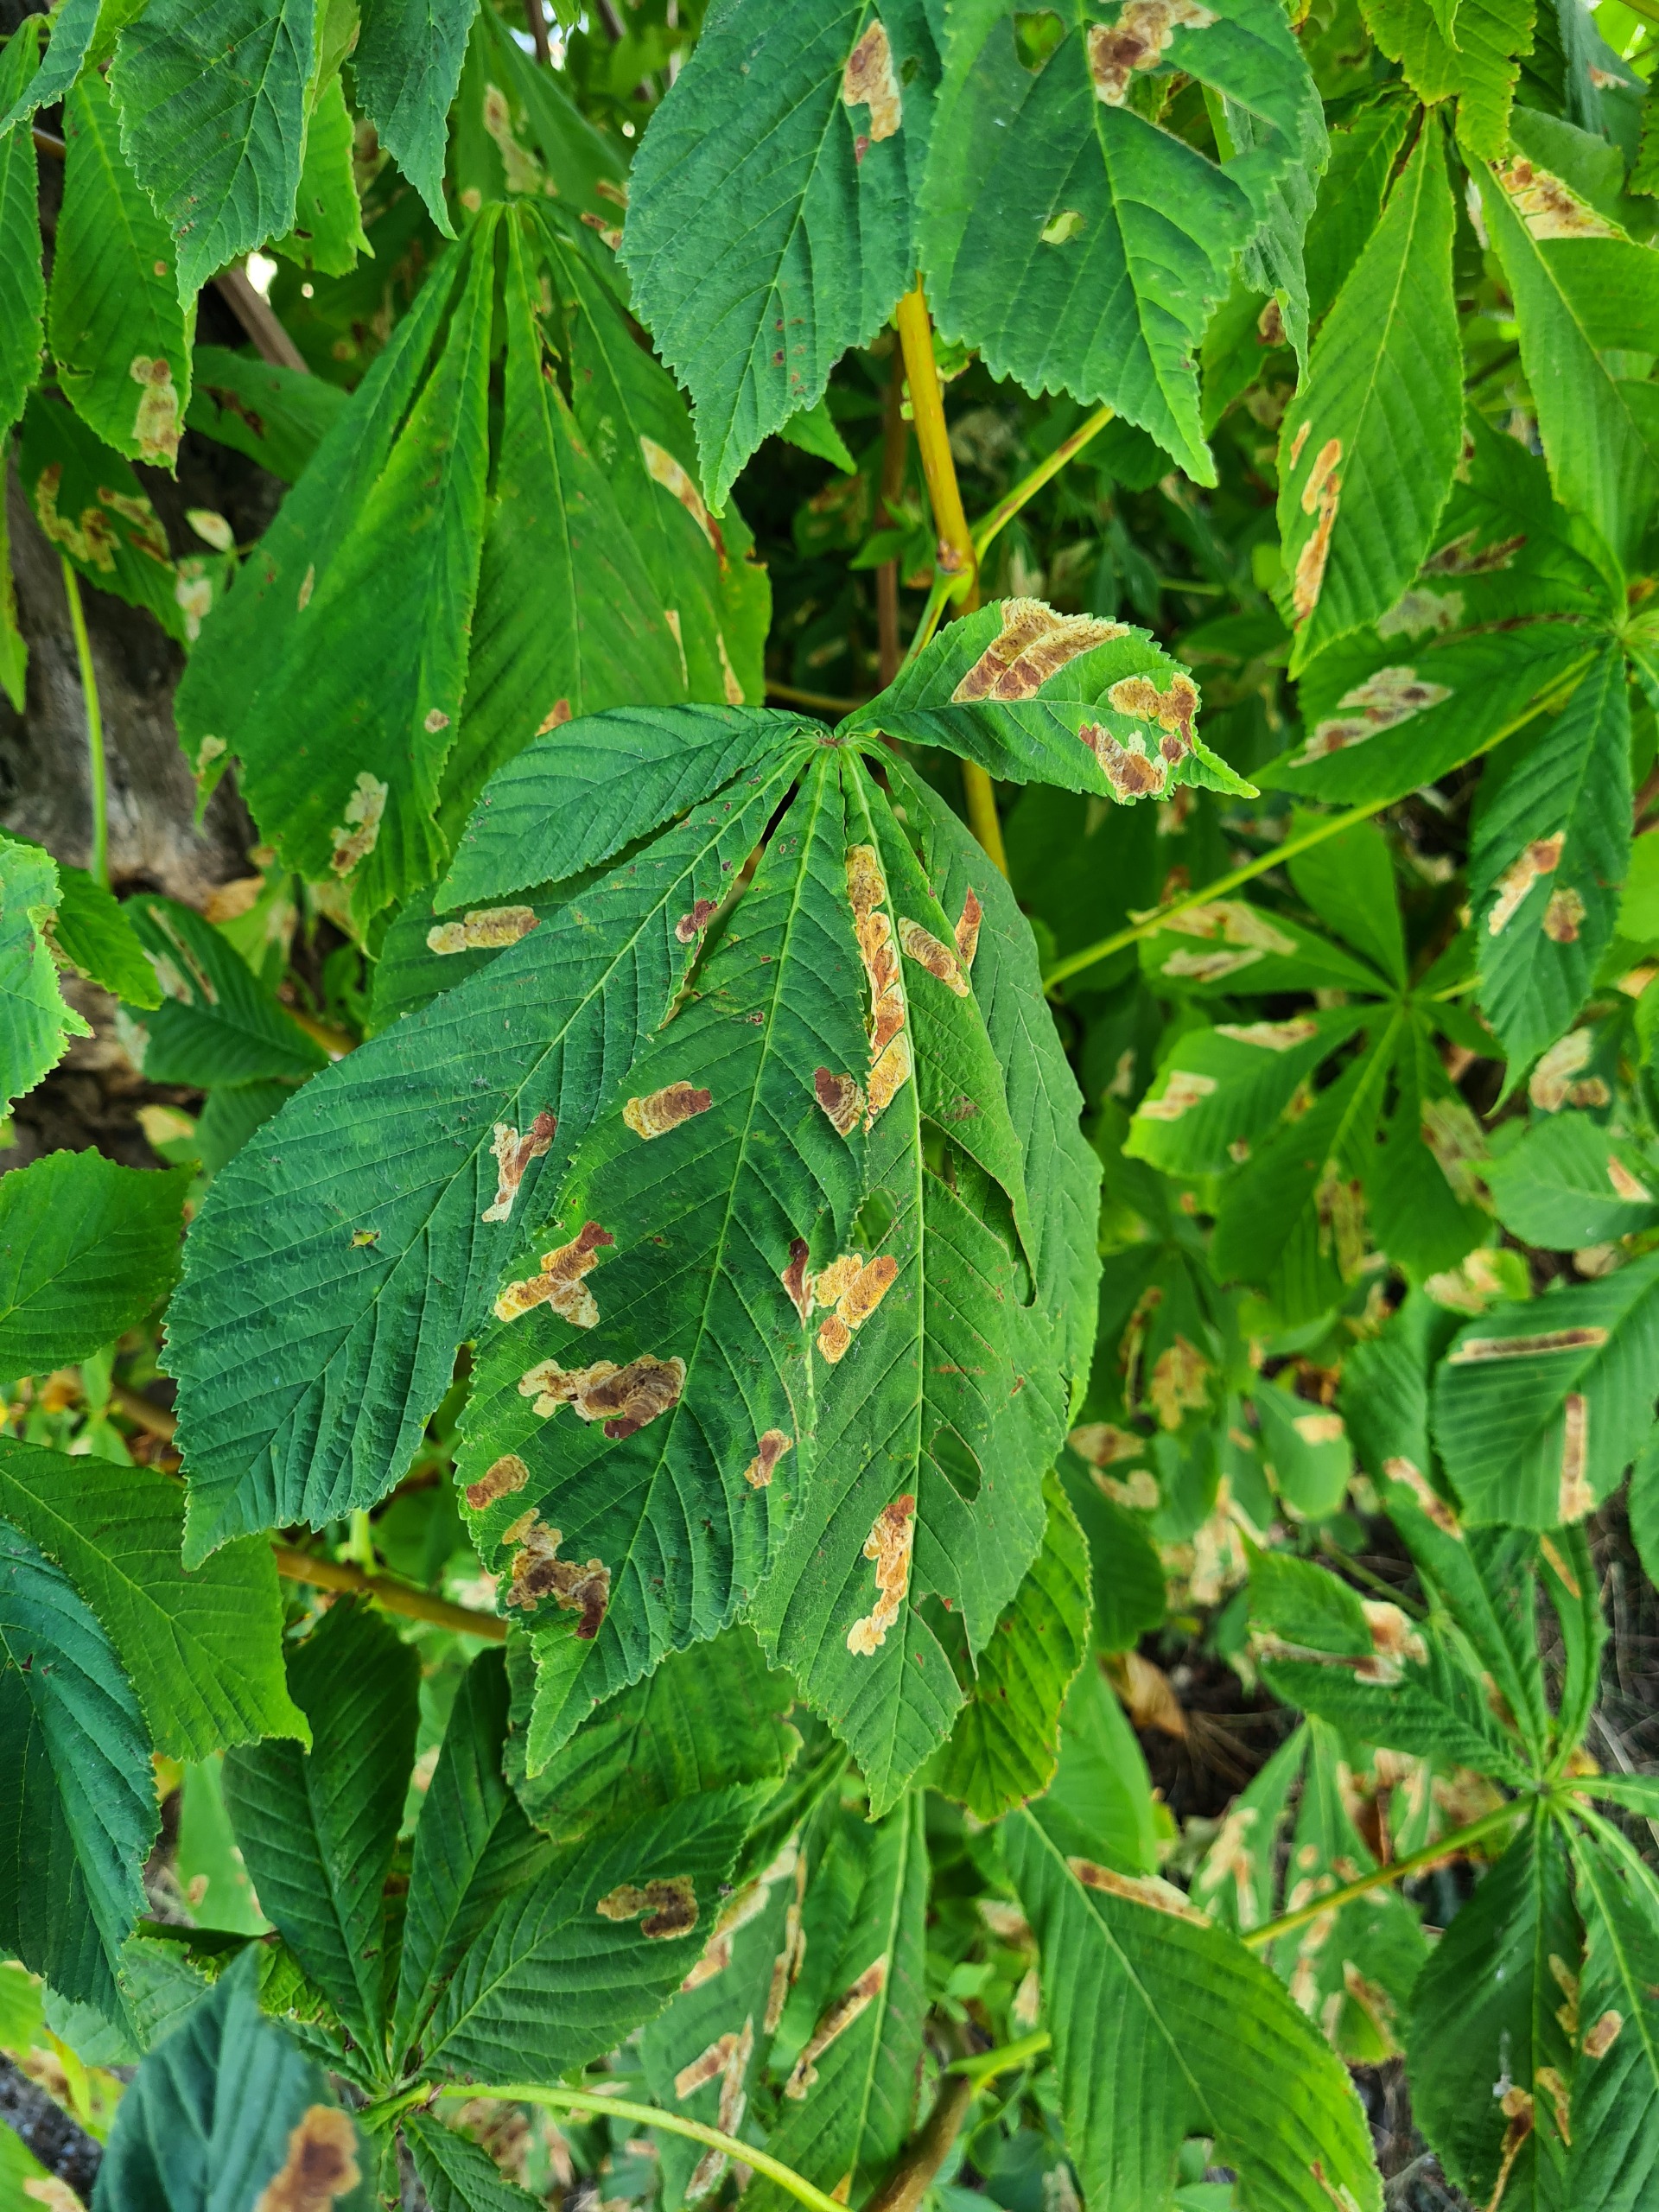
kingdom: Animalia
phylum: Arthropoda
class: Insecta
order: Lepidoptera
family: Gracillariidae
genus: Cameraria
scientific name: Cameraria ohridella
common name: Kastanieminérmøl
